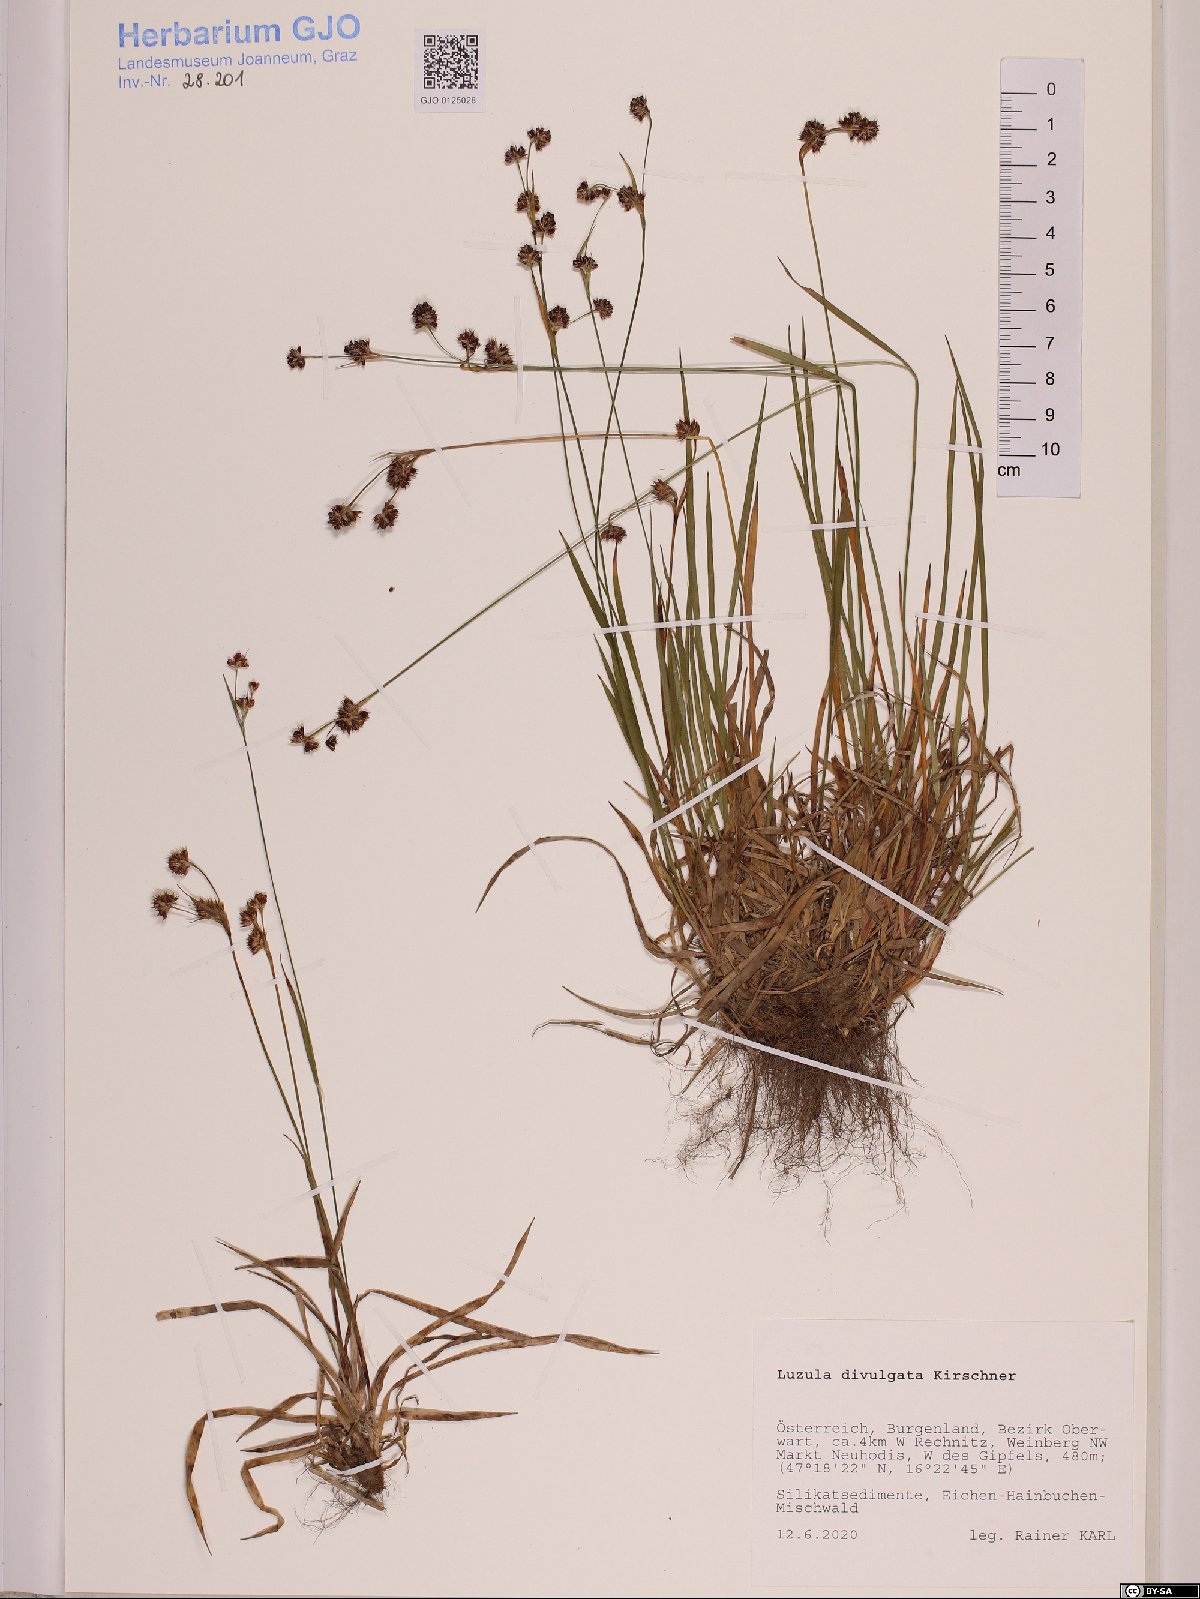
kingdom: Plantae
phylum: Tracheophyta
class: Liliopsida
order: Poales
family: Juncaceae
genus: Luzula
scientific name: Luzula divulgata
